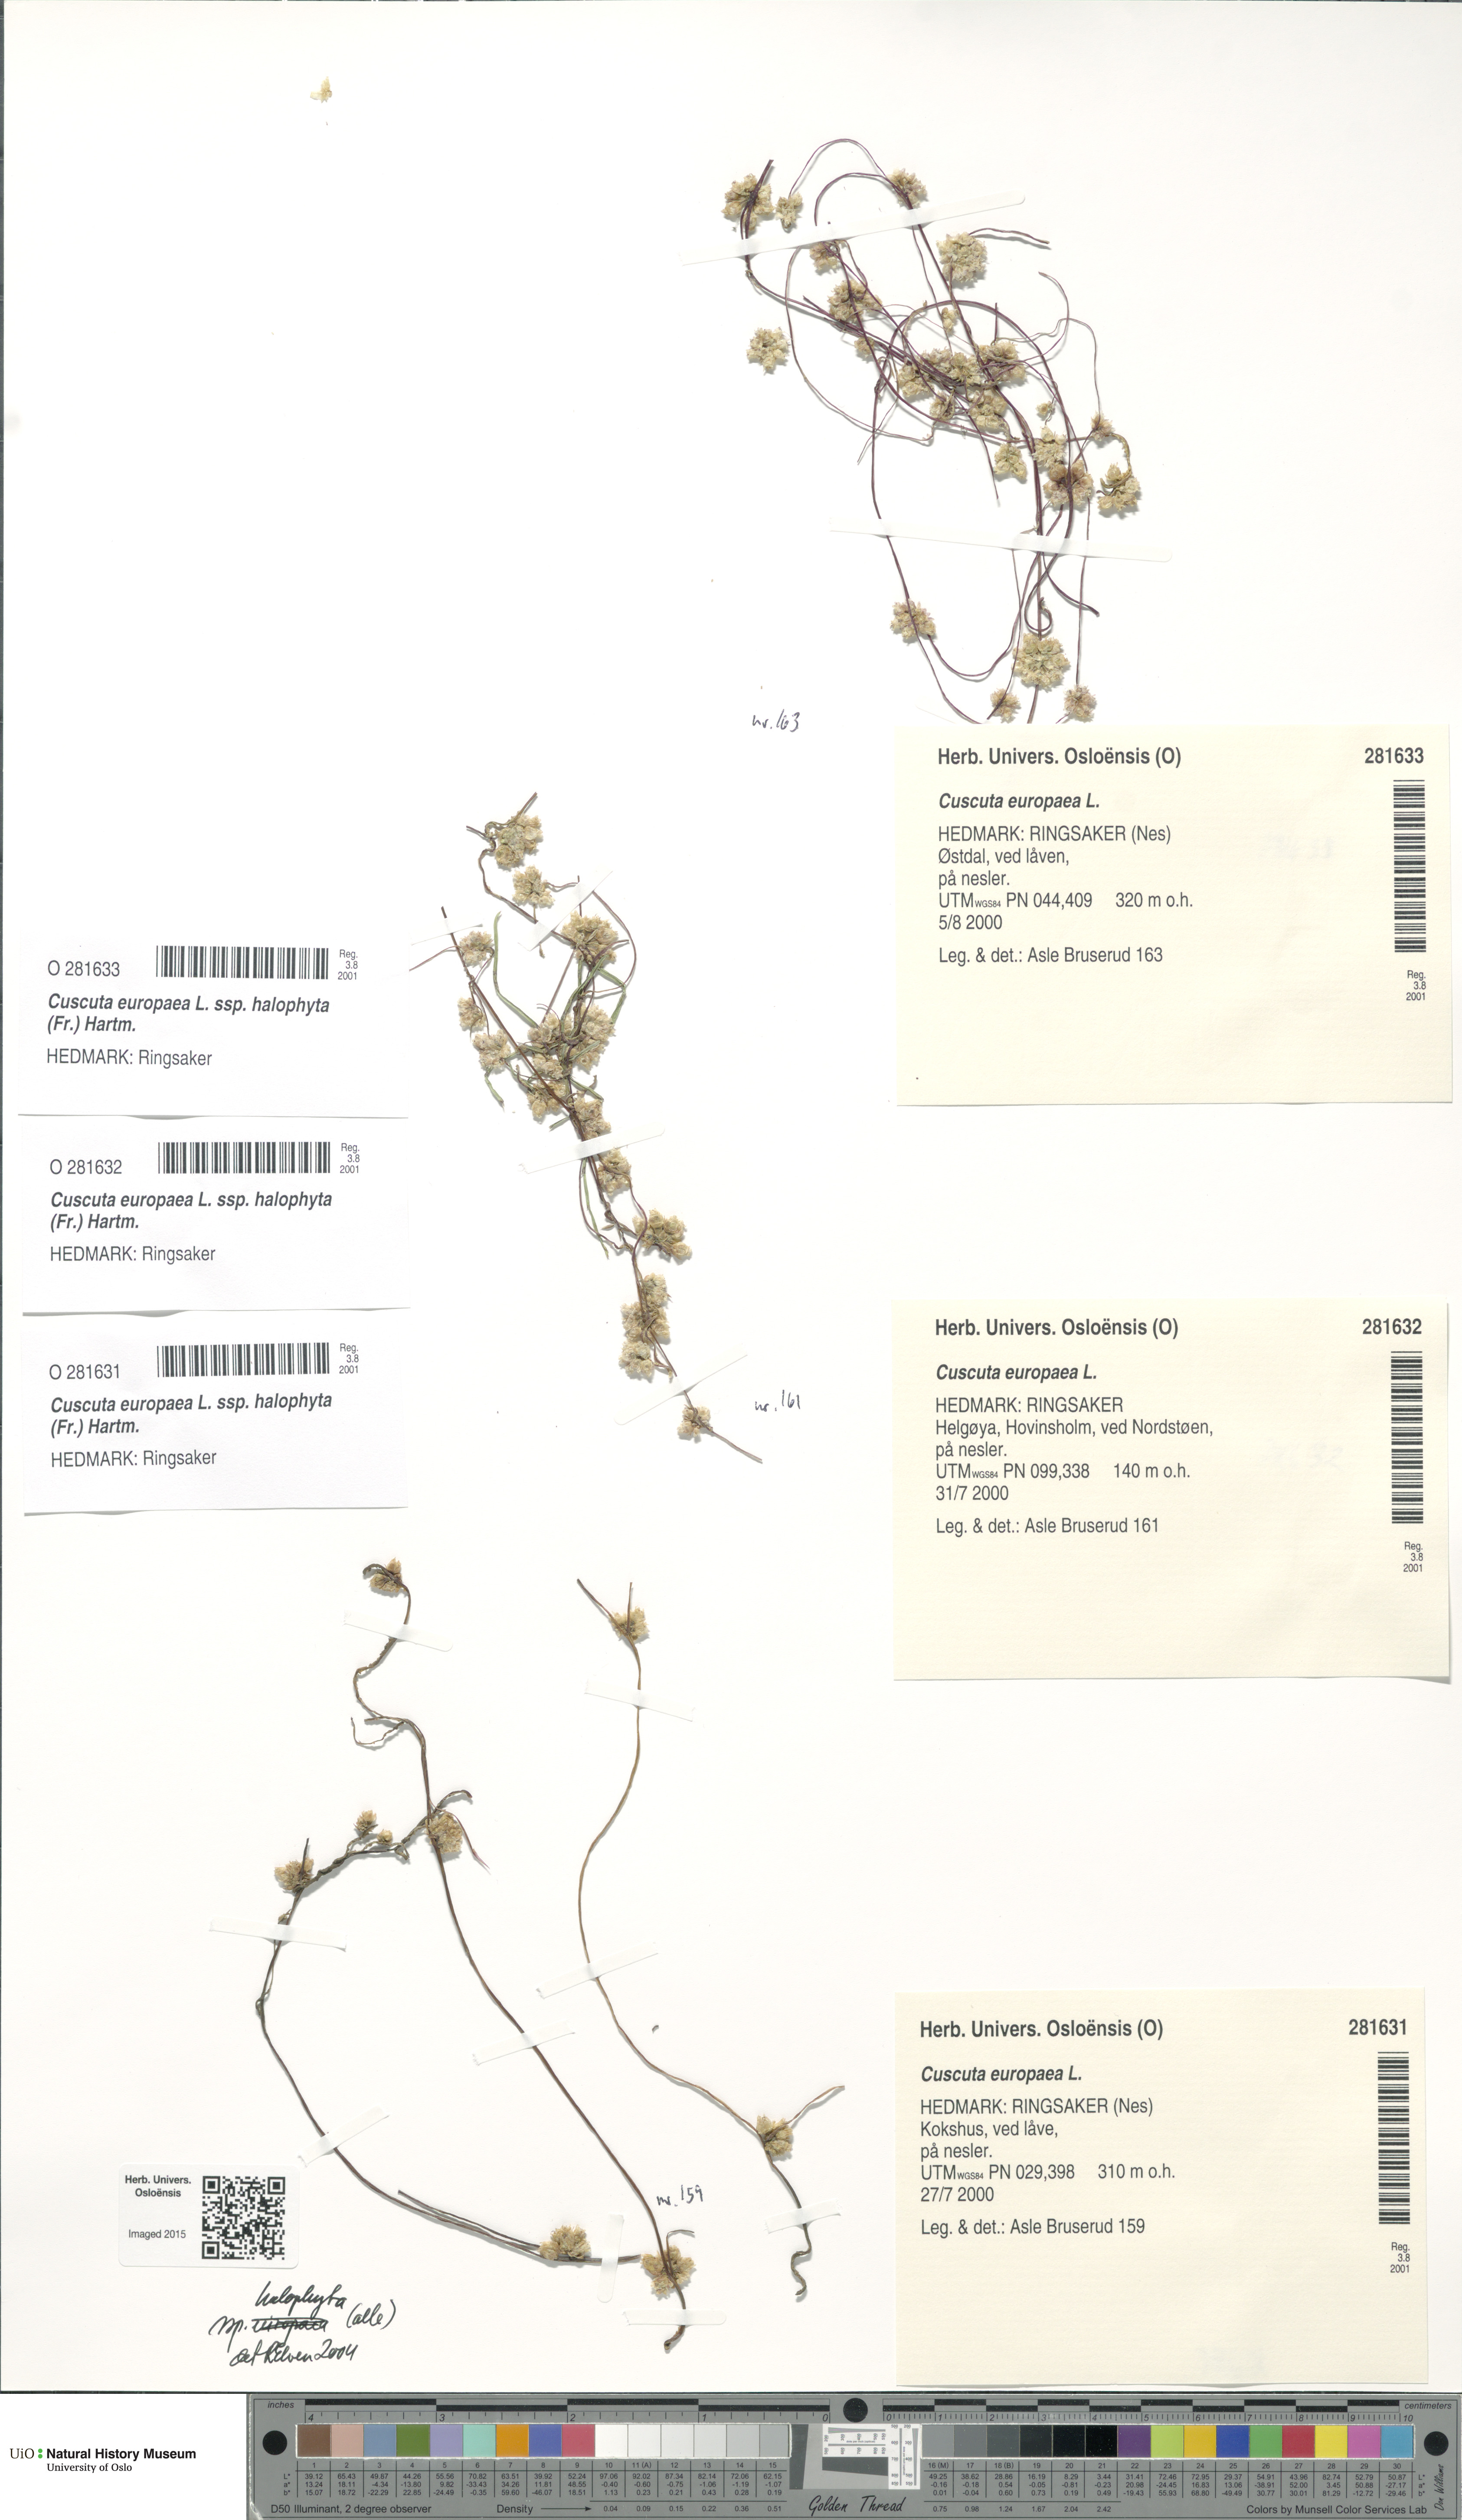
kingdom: Plantae
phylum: Tracheophyta
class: Magnoliopsida
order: Solanales
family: Convolvulaceae
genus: Cuscuta
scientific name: Cuscuta europaea
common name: Greater dodder
